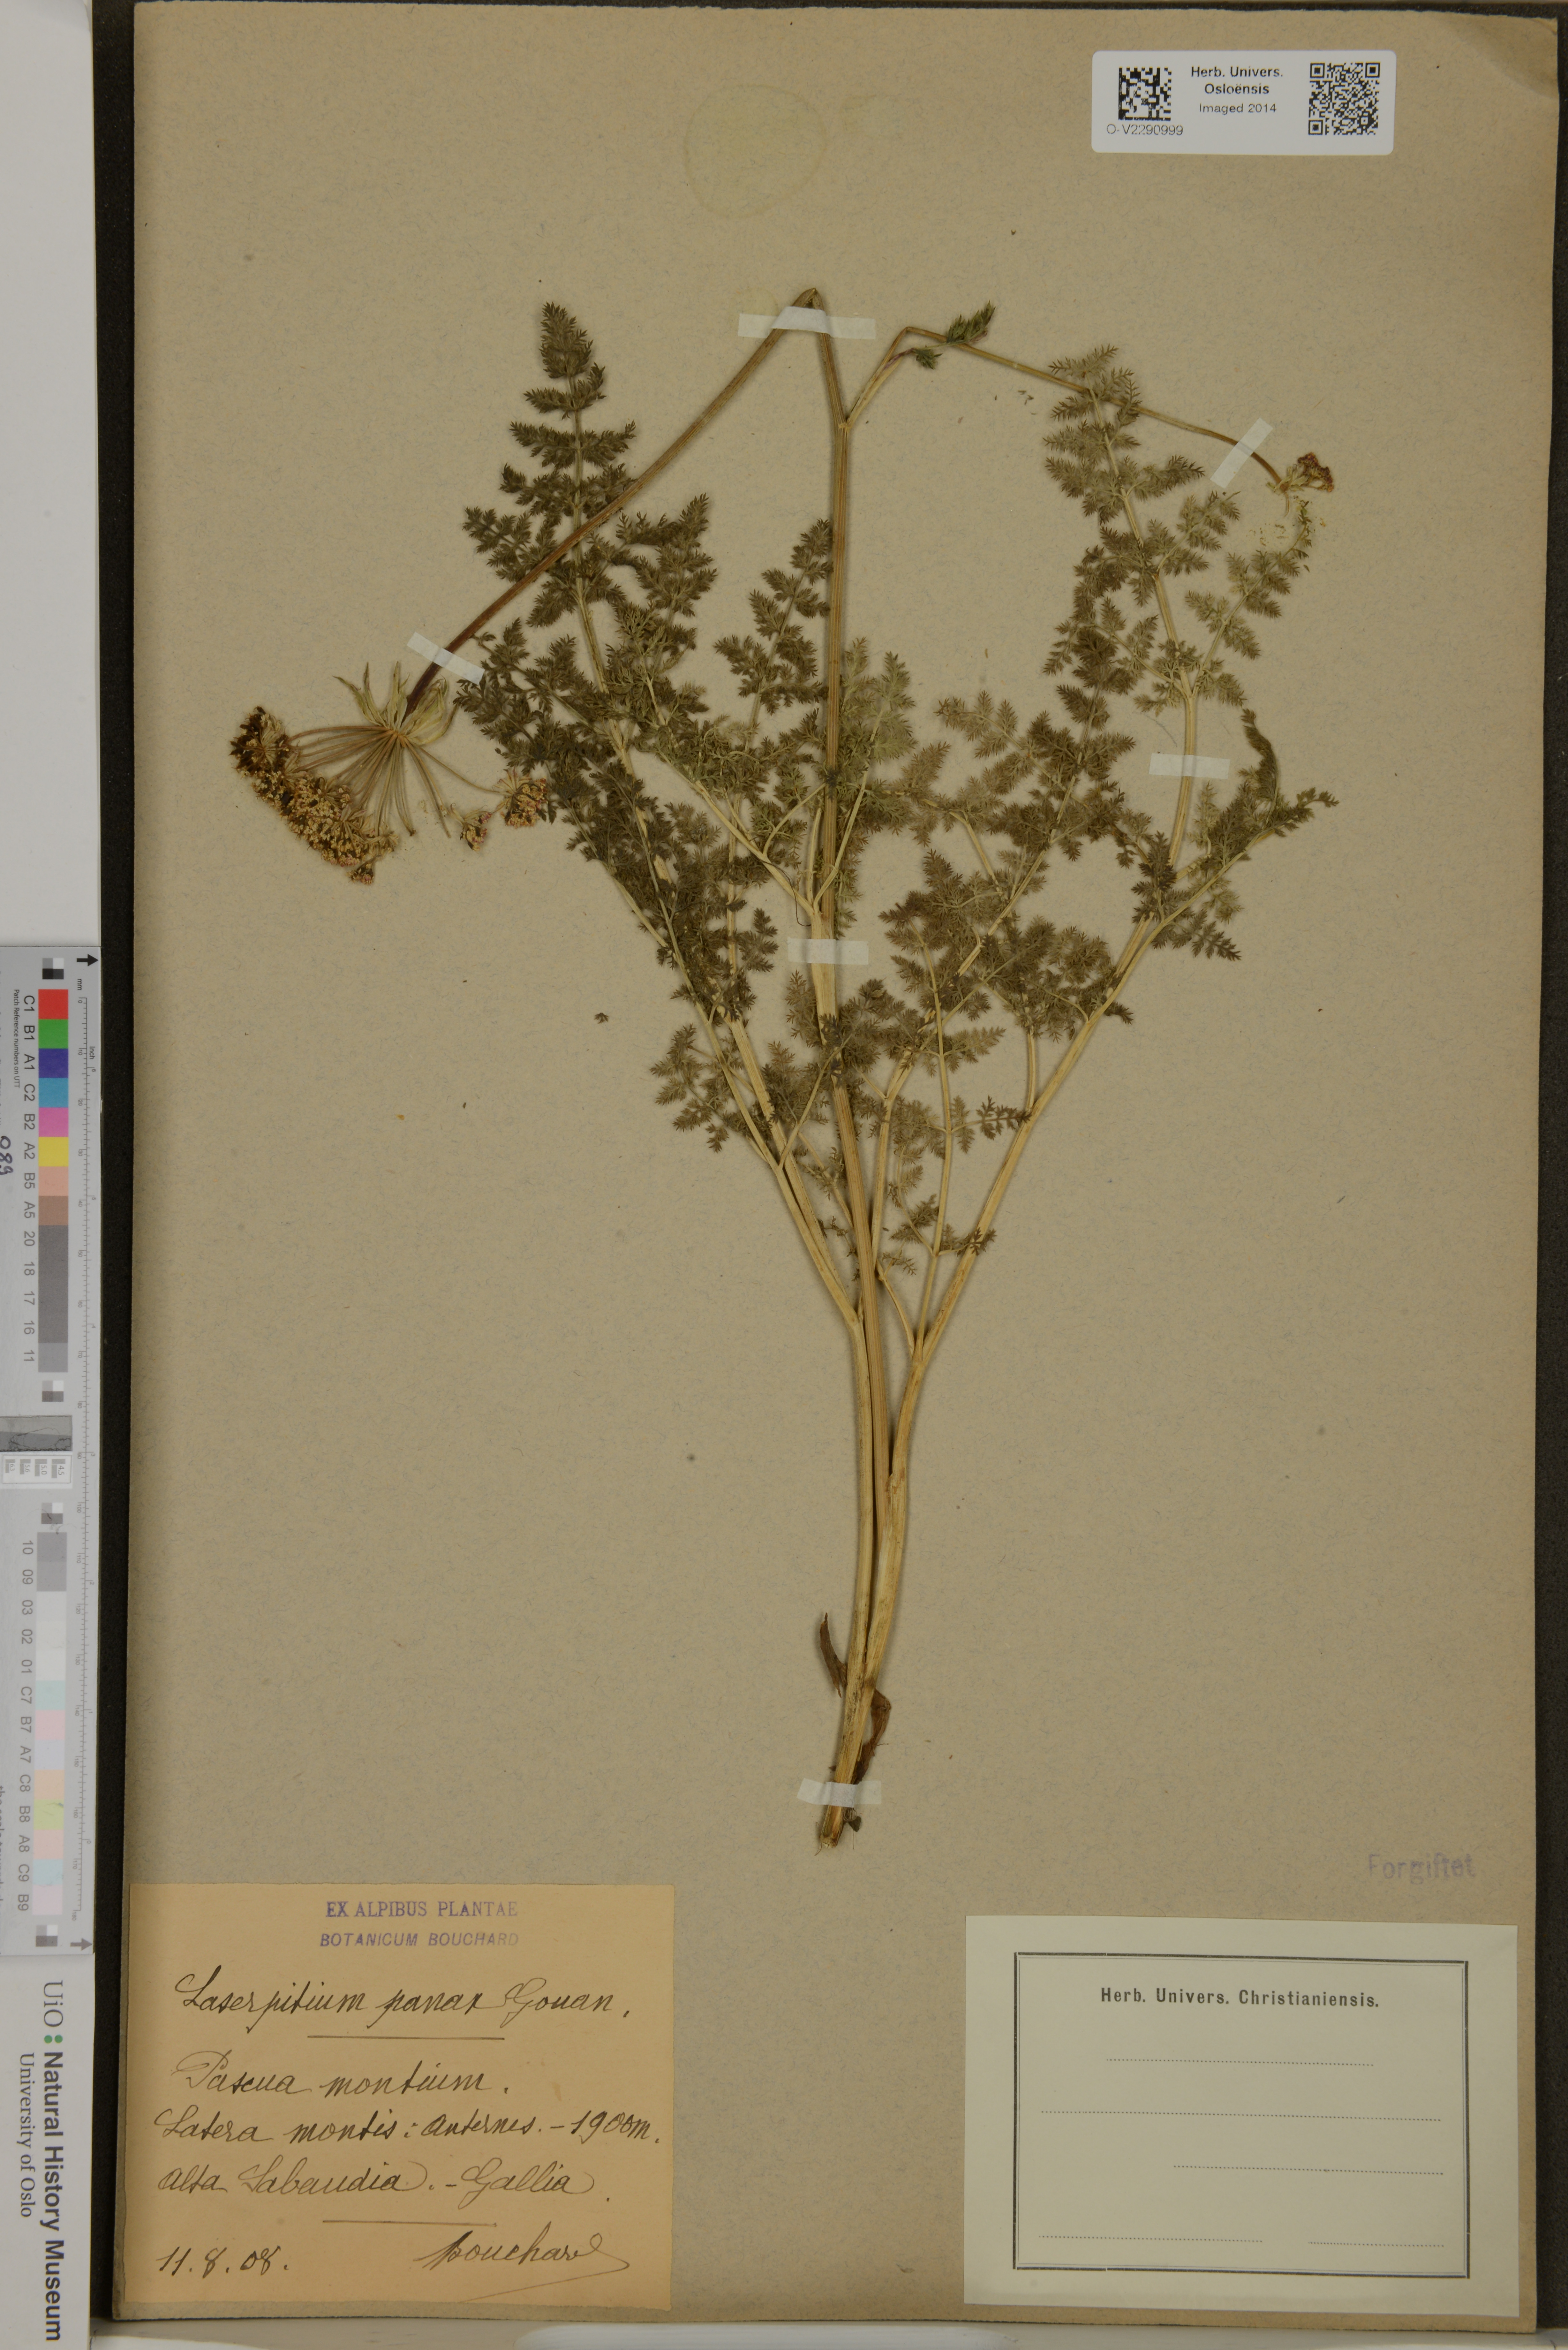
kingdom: Plantae
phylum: Tracheophyta
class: Magnoliopsida
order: Apiales
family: Apiaceae
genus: Laserpitium
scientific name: Laserpitium halleri
